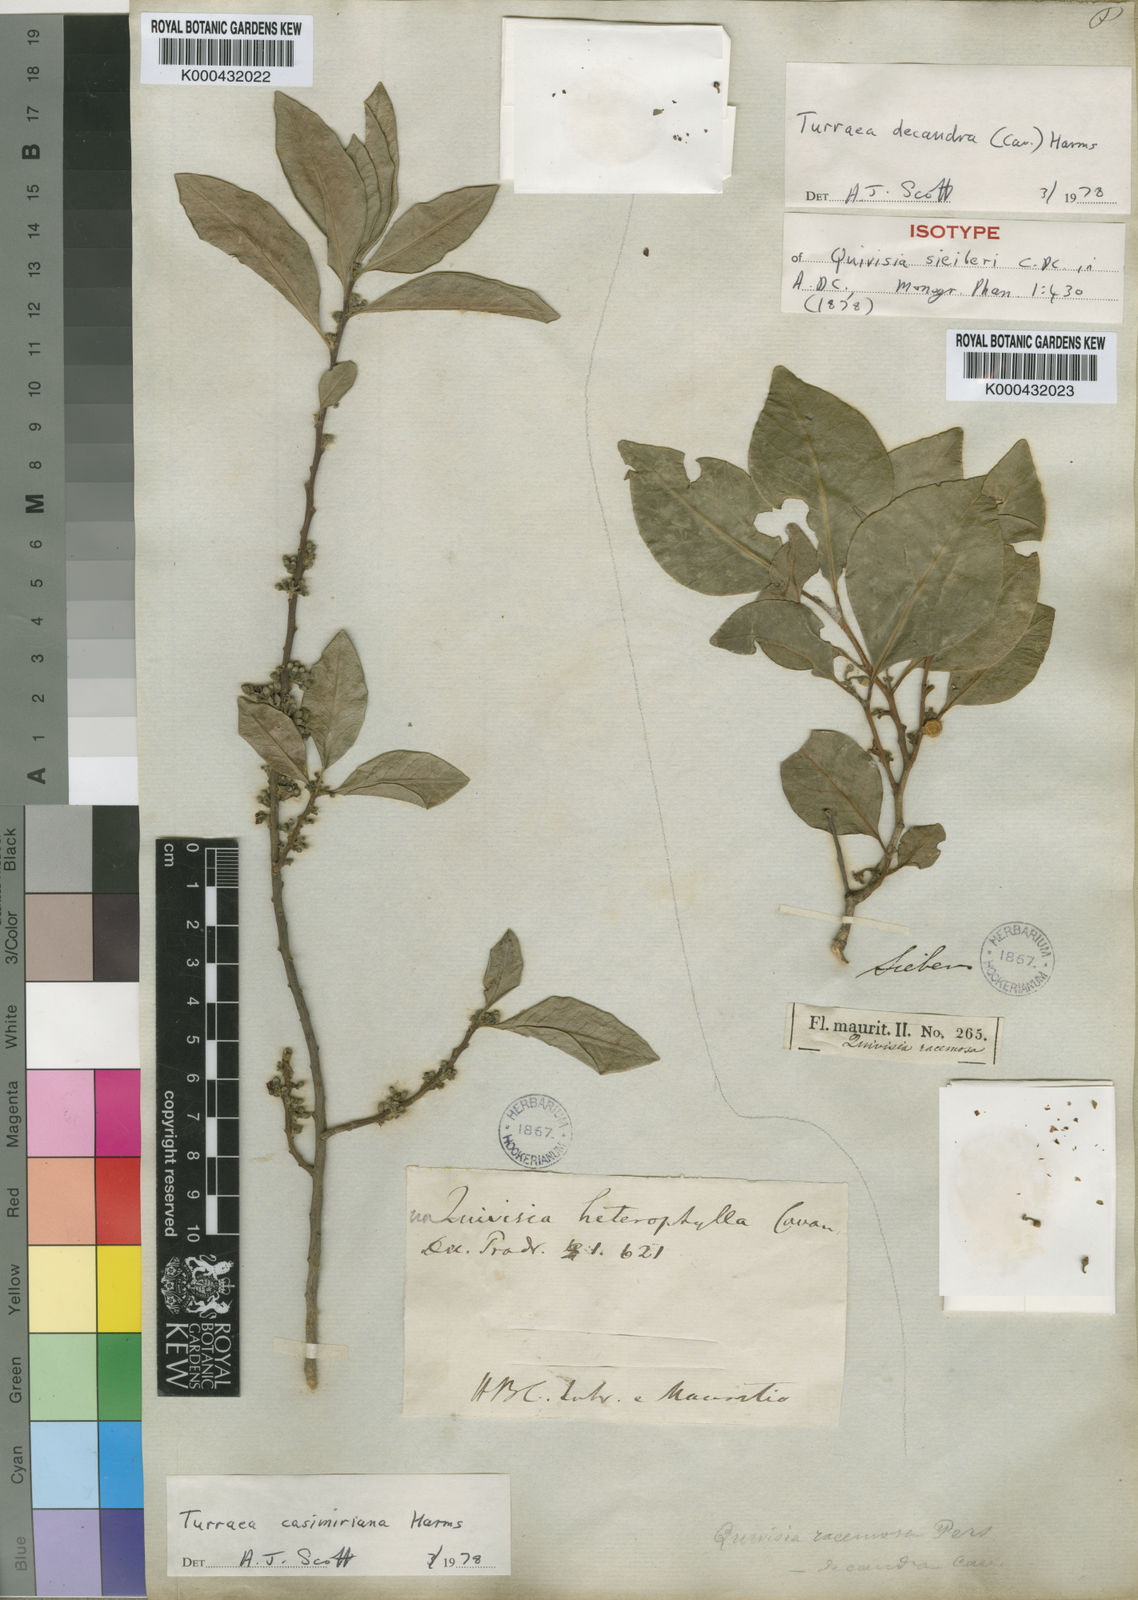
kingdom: Plantae
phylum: Tracheophyta
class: Magnoliopsida
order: Sapindales
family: Meliaceae
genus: Turraea
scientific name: Turraea
